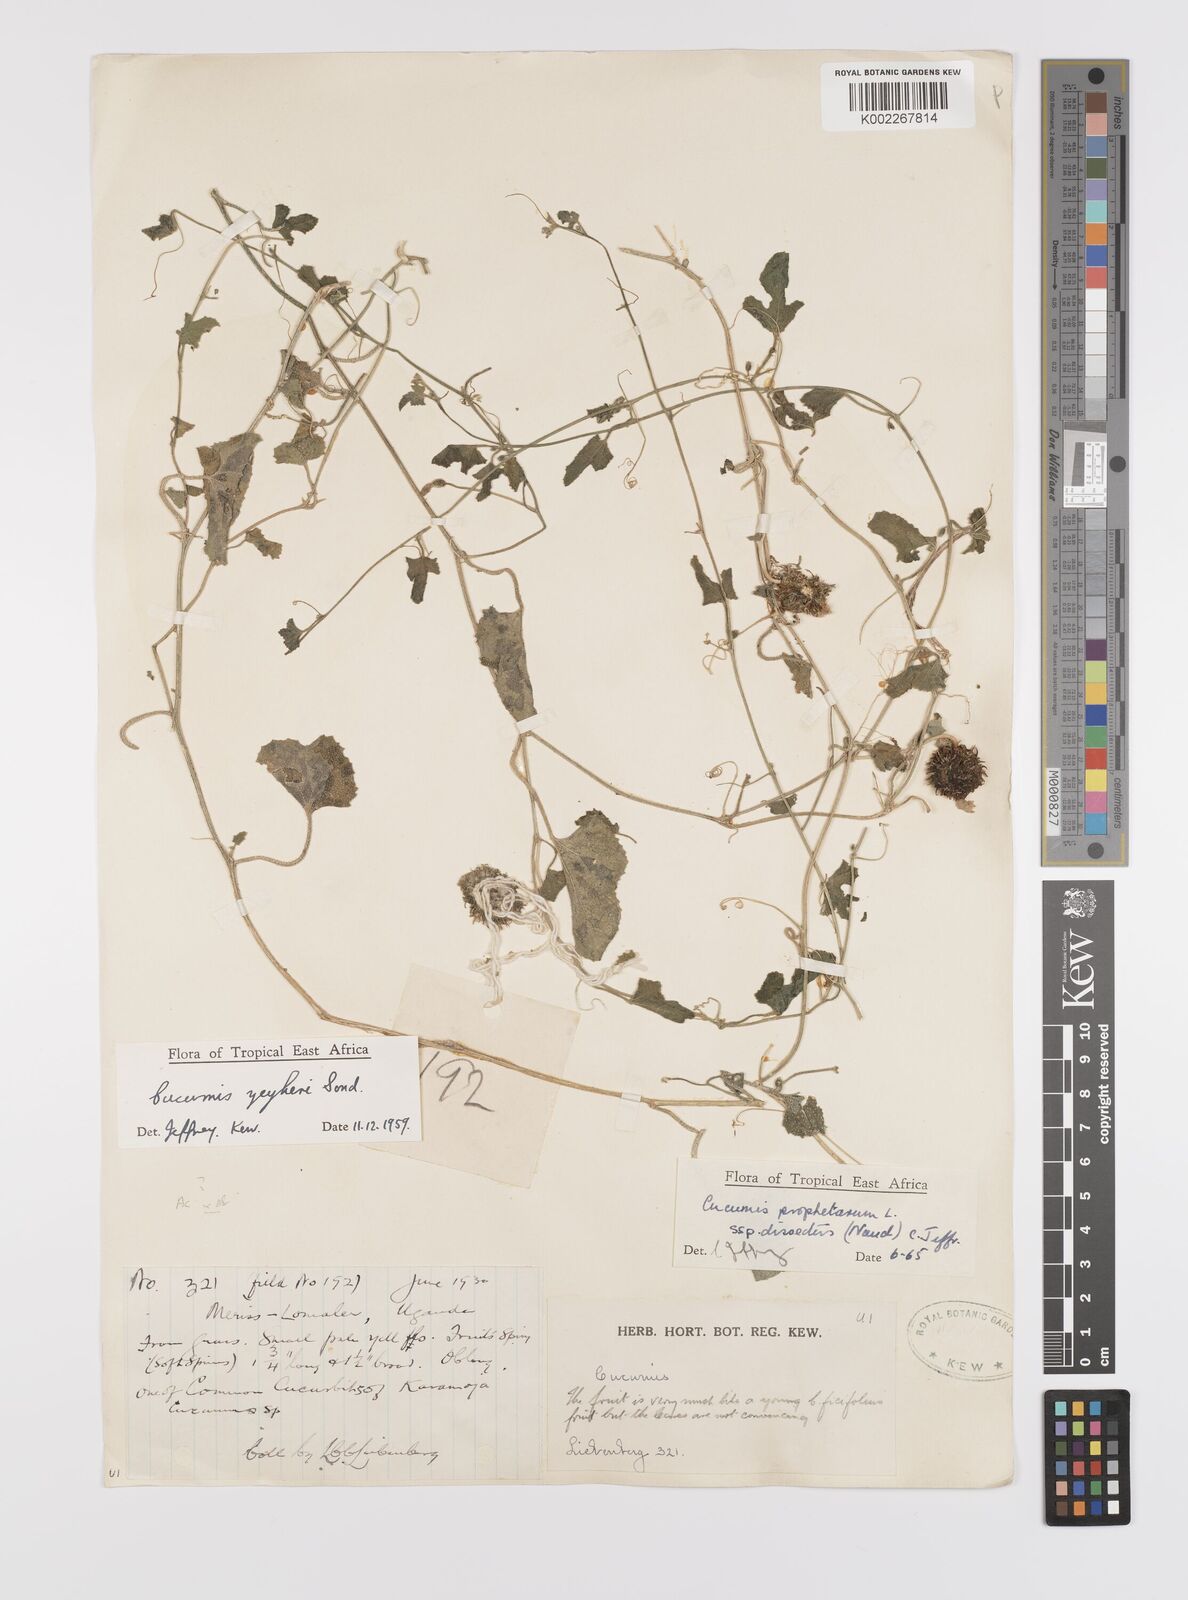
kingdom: Plantae
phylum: Tracheophyta
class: Magnoliopsida
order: Cucurbitales
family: Cucurbitaceae
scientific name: Cucurbitaceae
